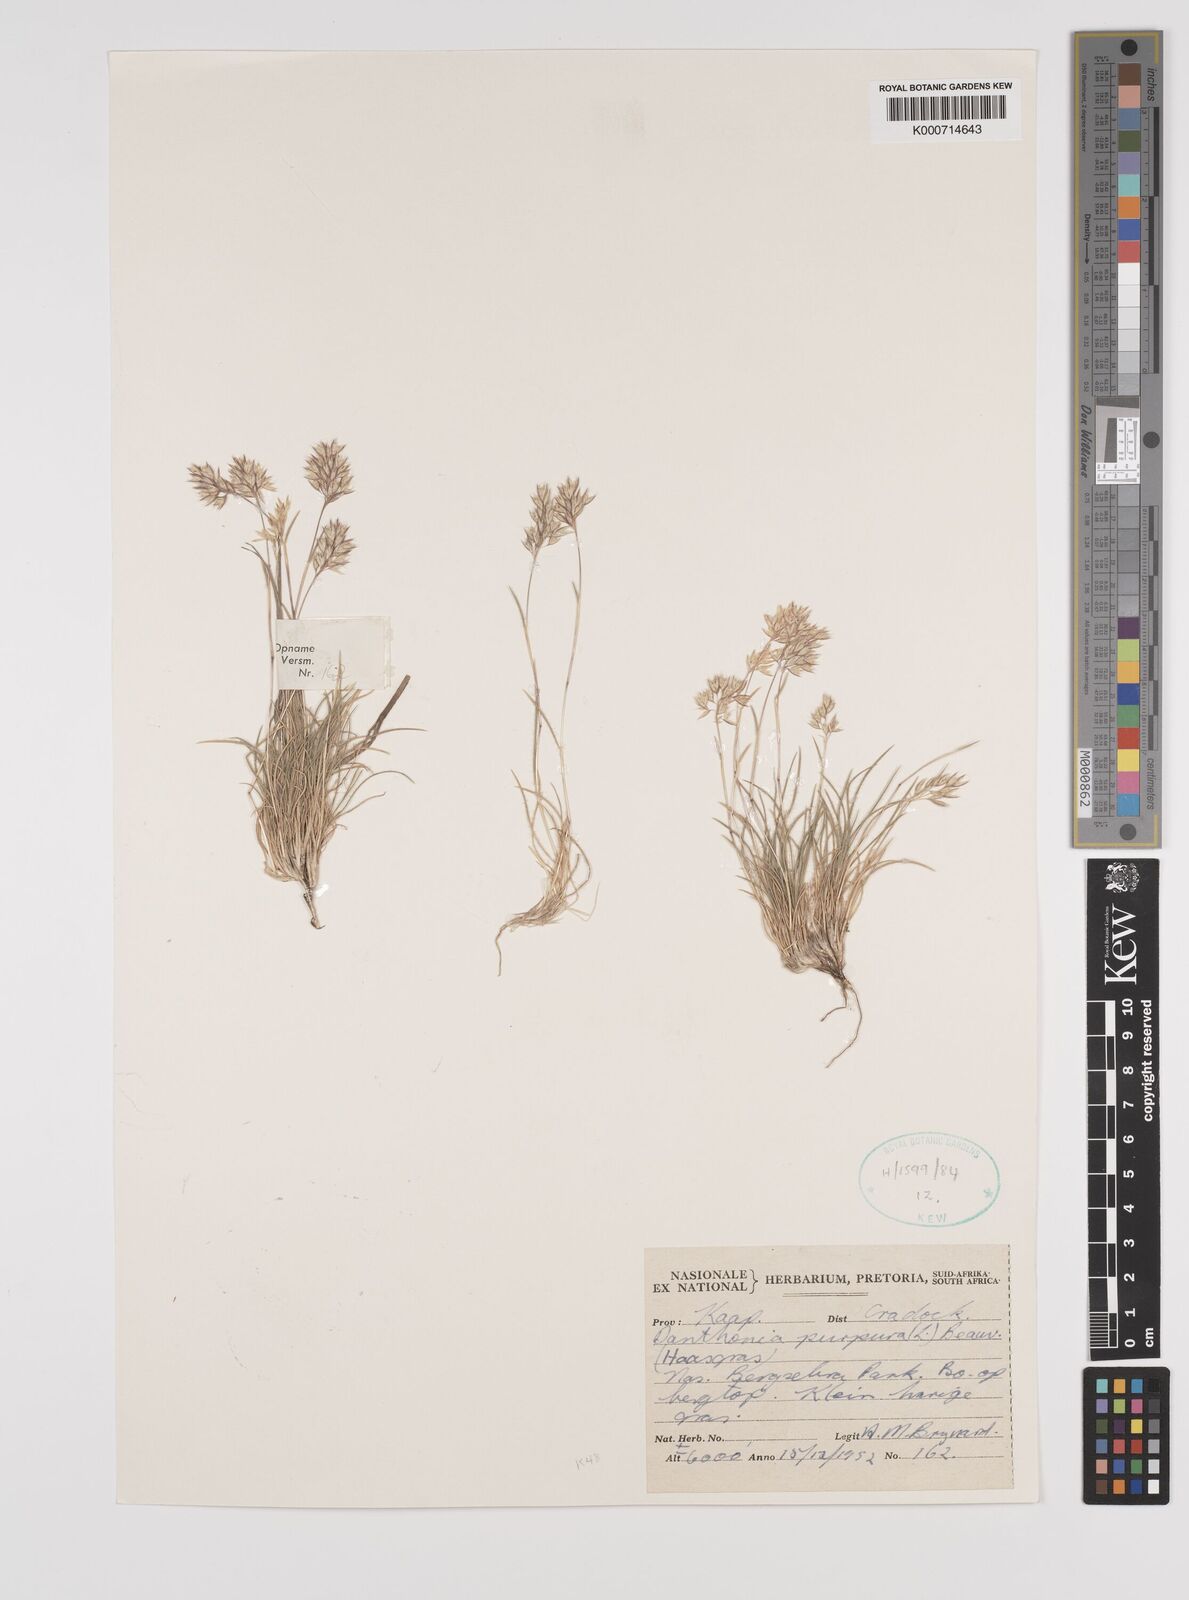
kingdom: Plantae
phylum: Tracheophyta
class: Liliopsida
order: Poales
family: Poaceae
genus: Rytidosperma
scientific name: Rytidosperma
